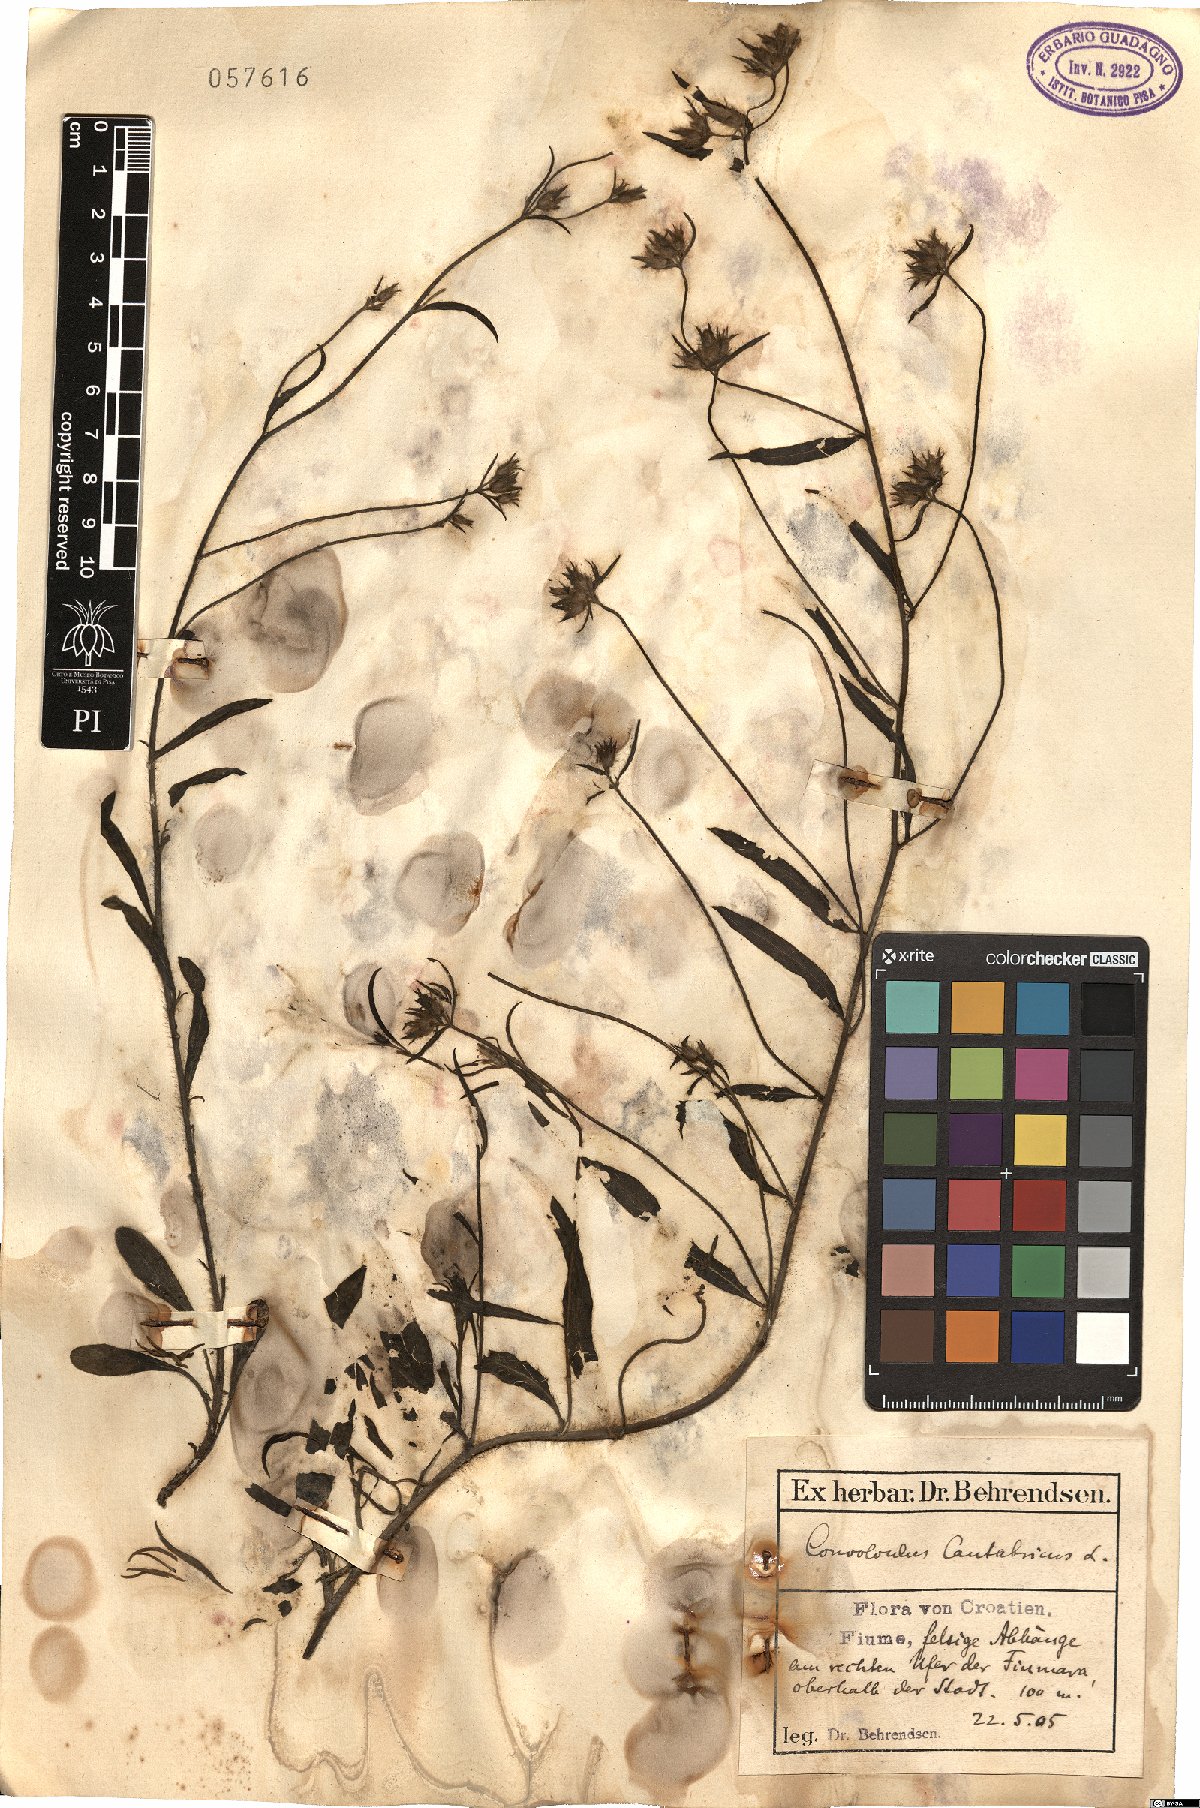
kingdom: Plantae
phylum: Tracheophyta
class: Magnoliopsida
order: Solanales
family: Convolvulaceae
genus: Convolvulus
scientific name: Convolvulus cantabrica
